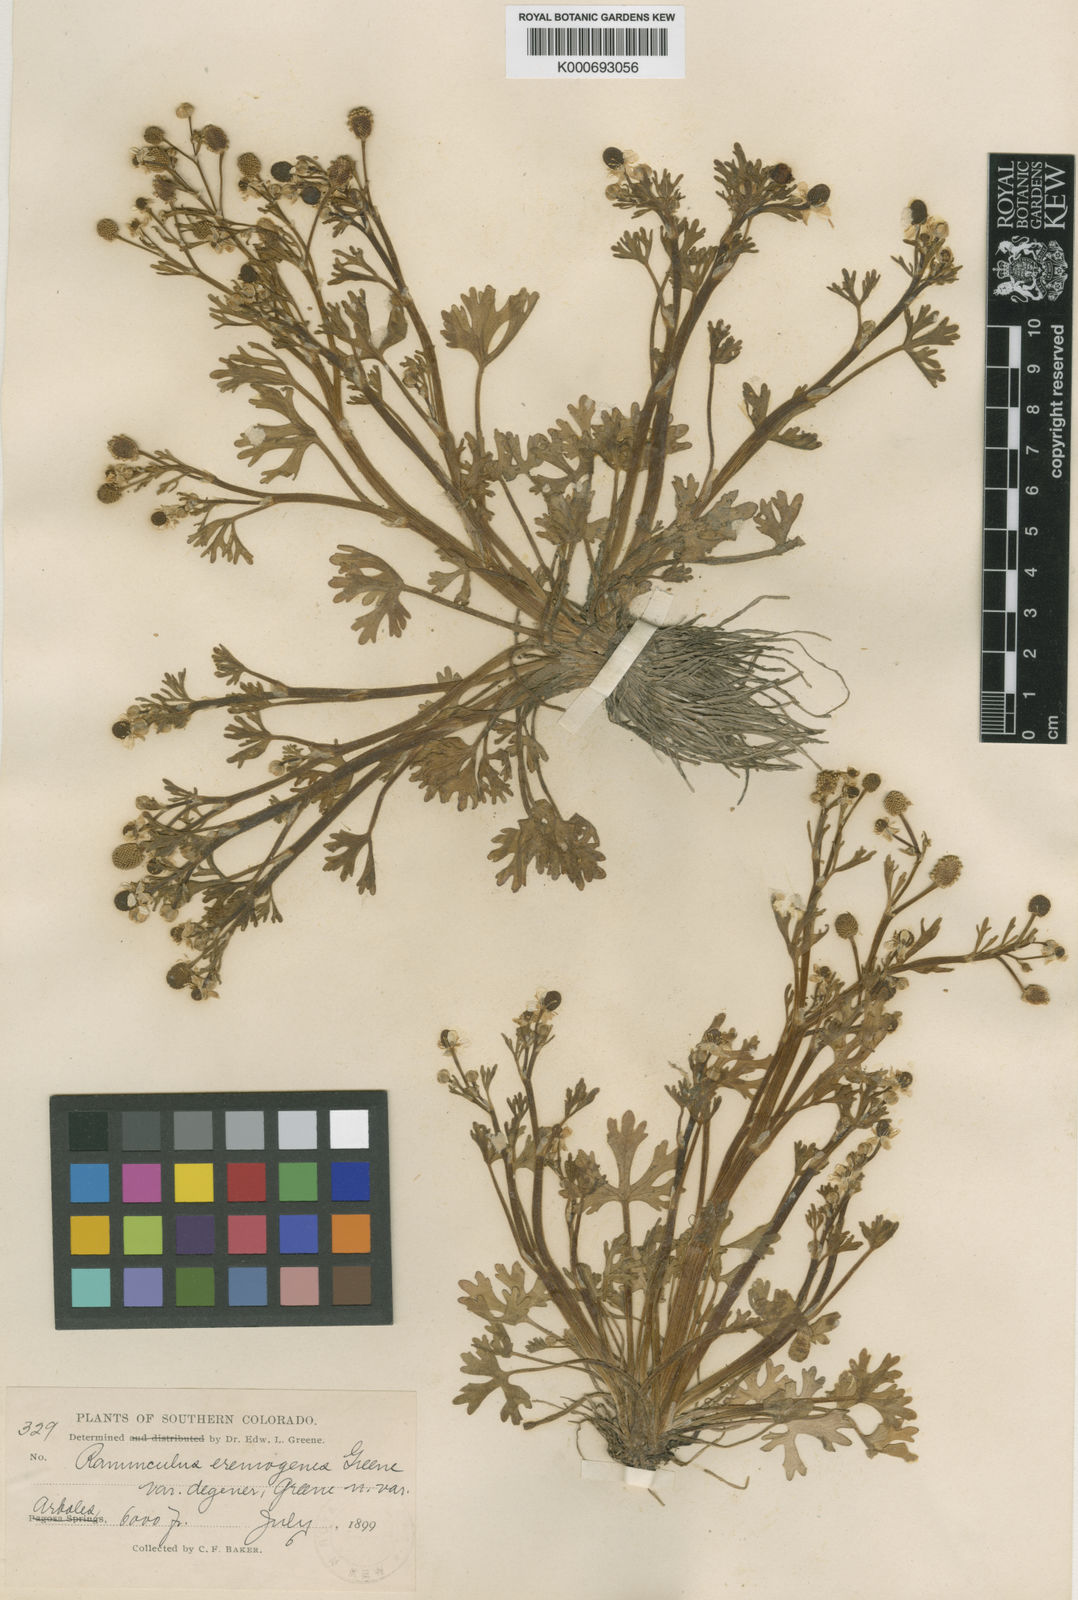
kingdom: Plantae
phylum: Tracheophyta
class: Magnoliopsida
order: Ranunculales
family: Ranunculaceae
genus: Ranunculus
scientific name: Ranunculus sceleratus
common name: Celery-leaved buttercup
